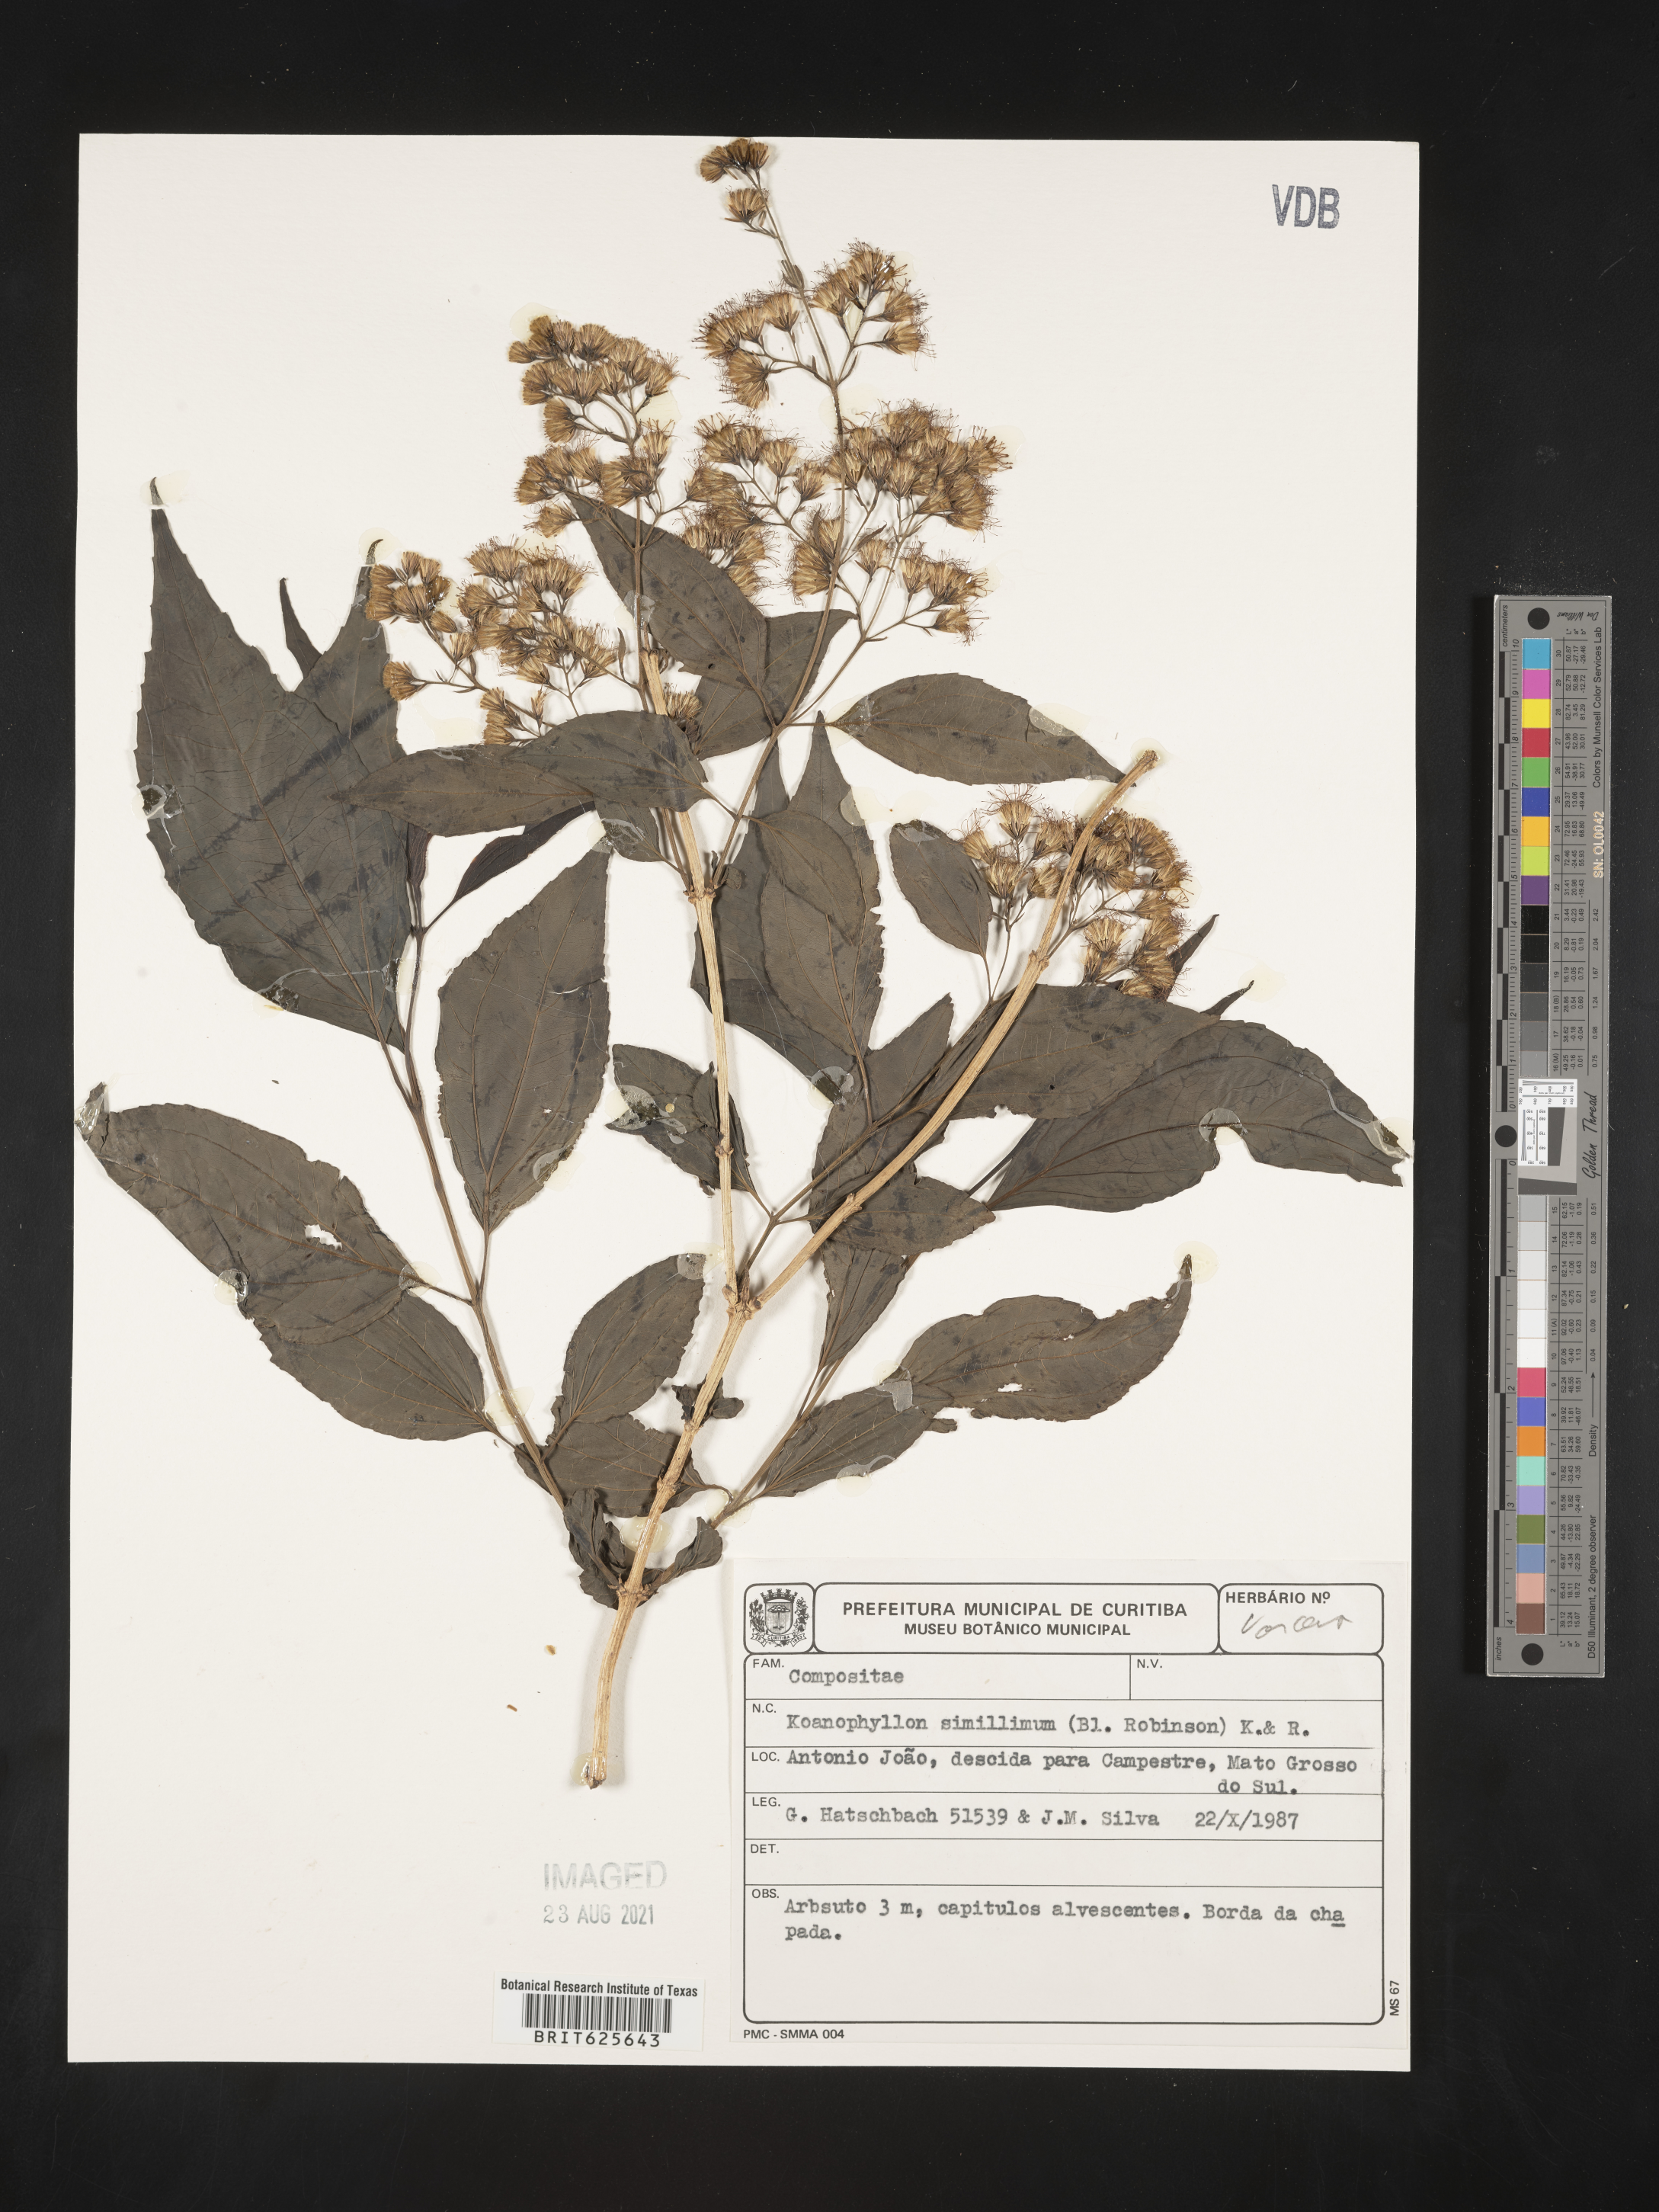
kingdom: Plantae
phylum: Tracheophyta
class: Magnoliopsida
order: Asterales
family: Asteraceae
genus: Koanophyllon
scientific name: Koanophyllon simillimum
